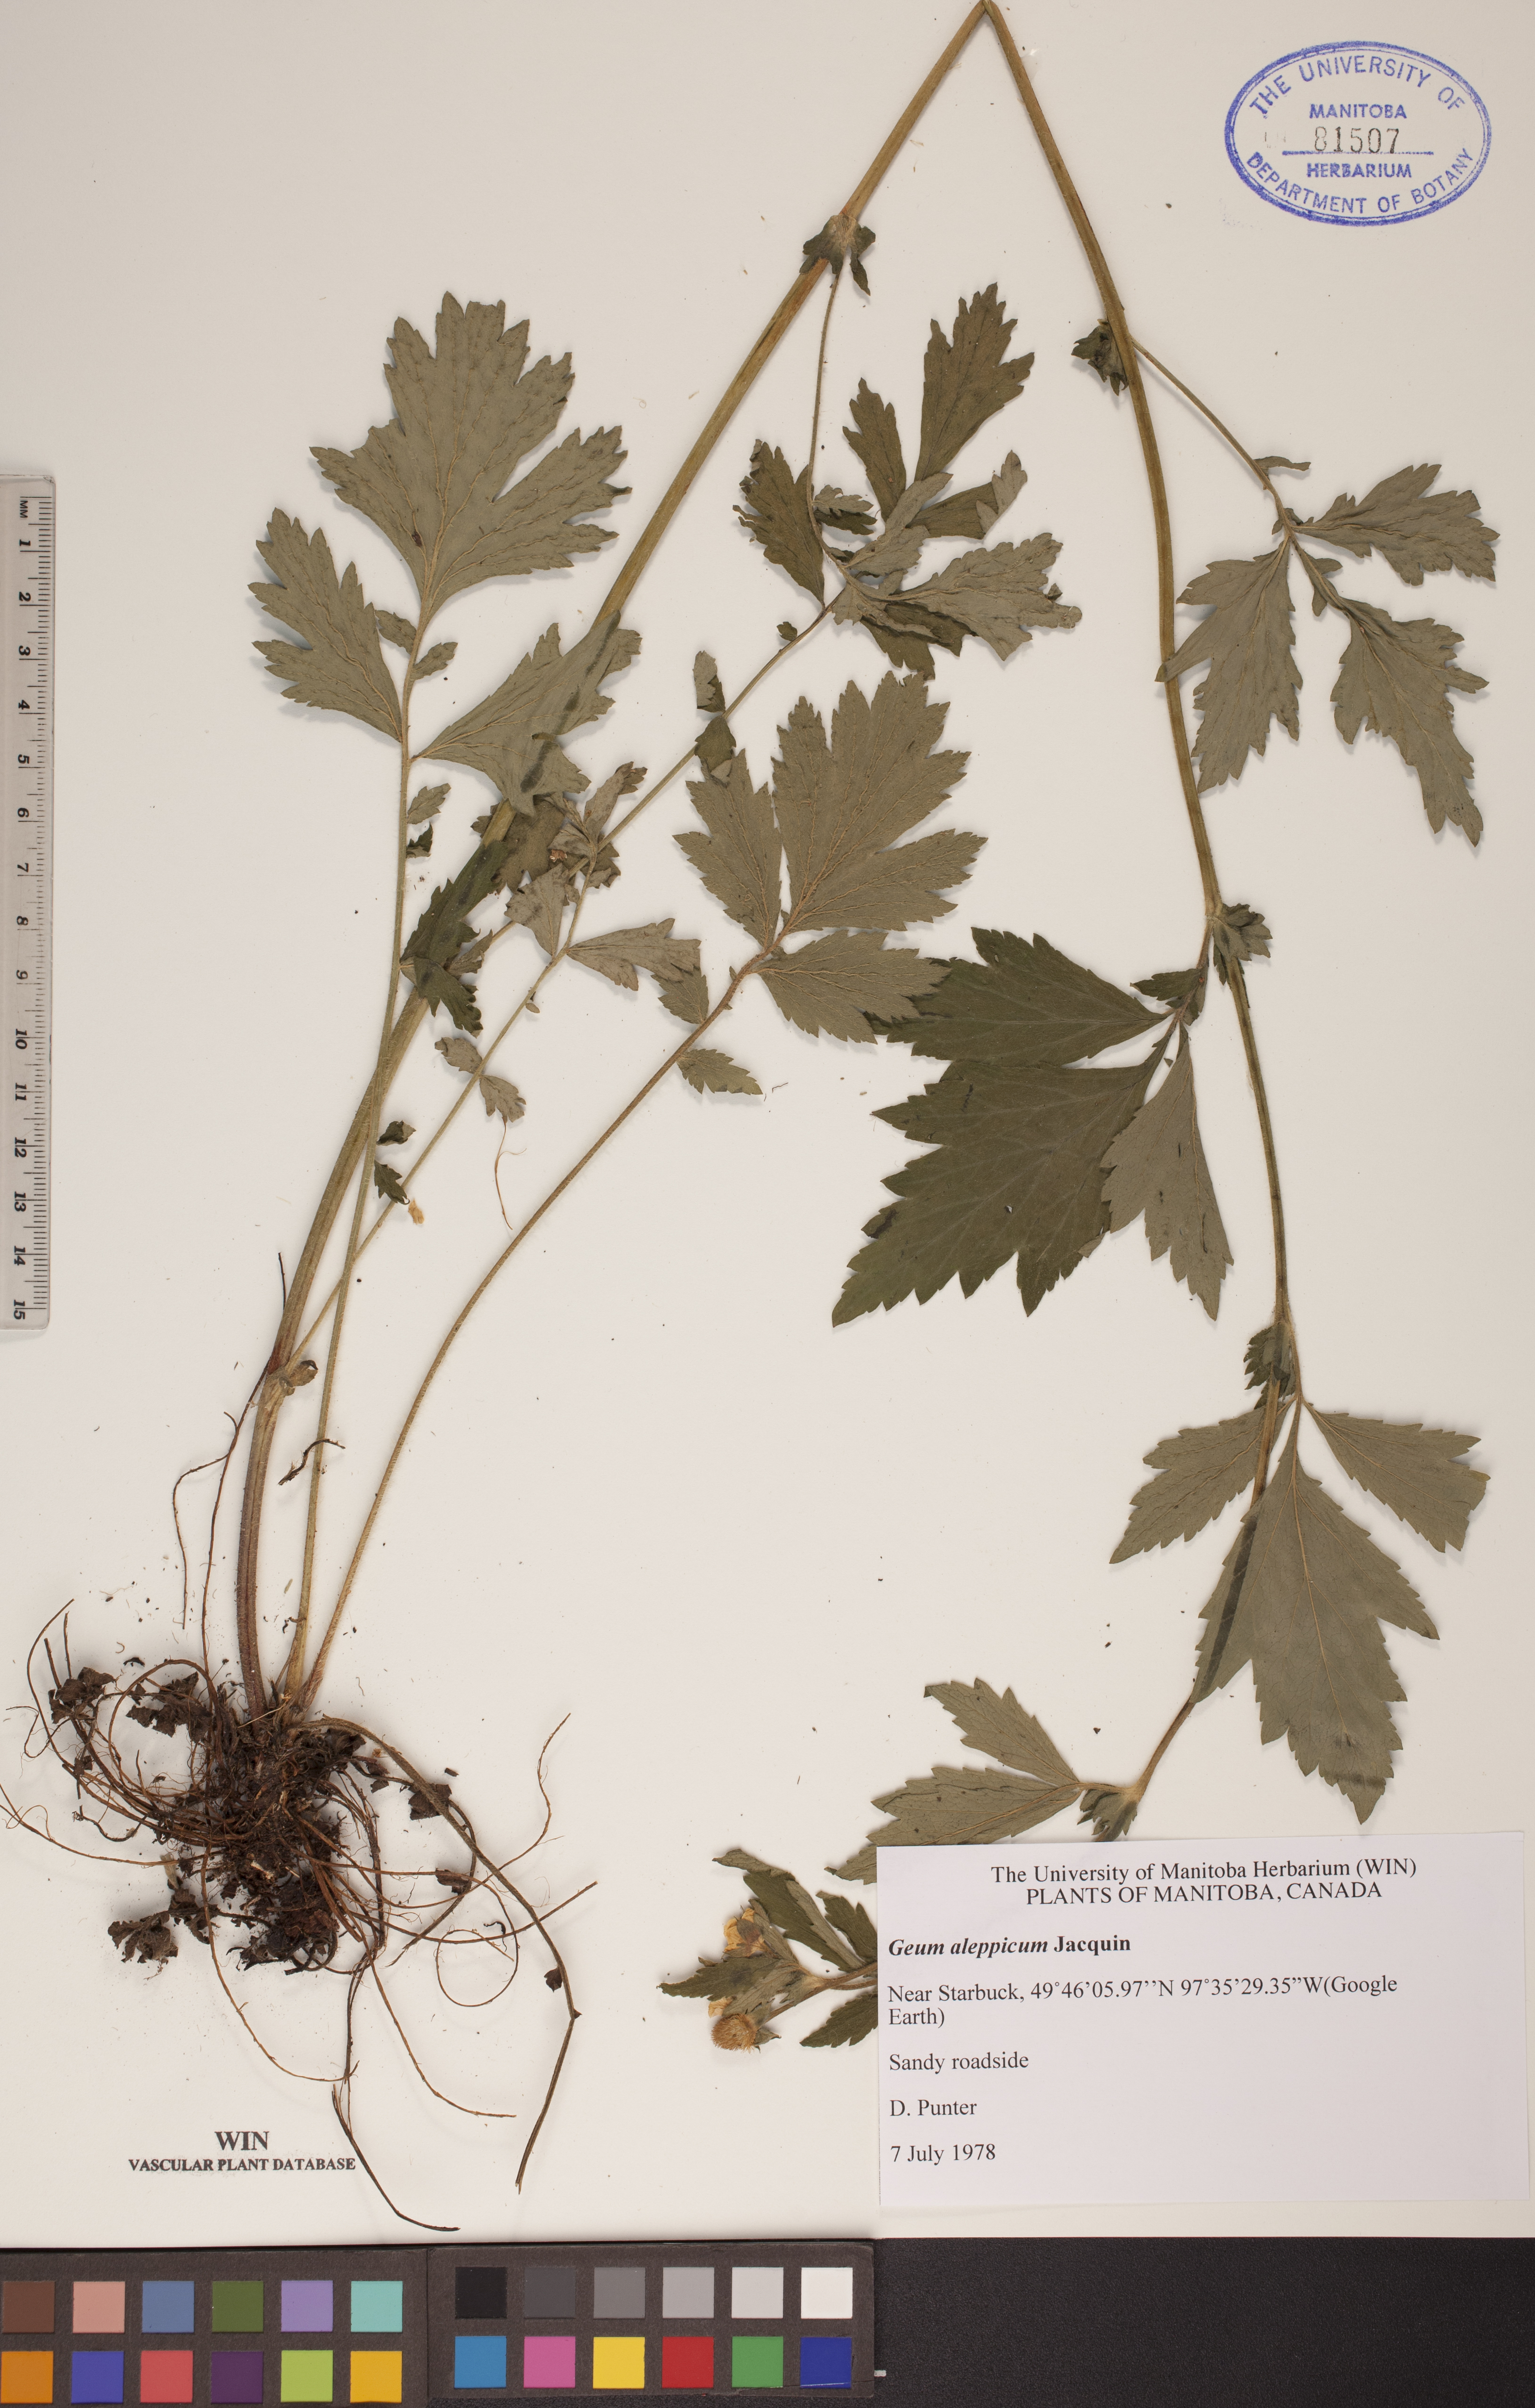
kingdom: Plantae
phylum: Tracheophyta
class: Magnoliopsida
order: Rosales
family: Rosaceae
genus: Geum
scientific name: Geum aleppicum
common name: Yellow avens
